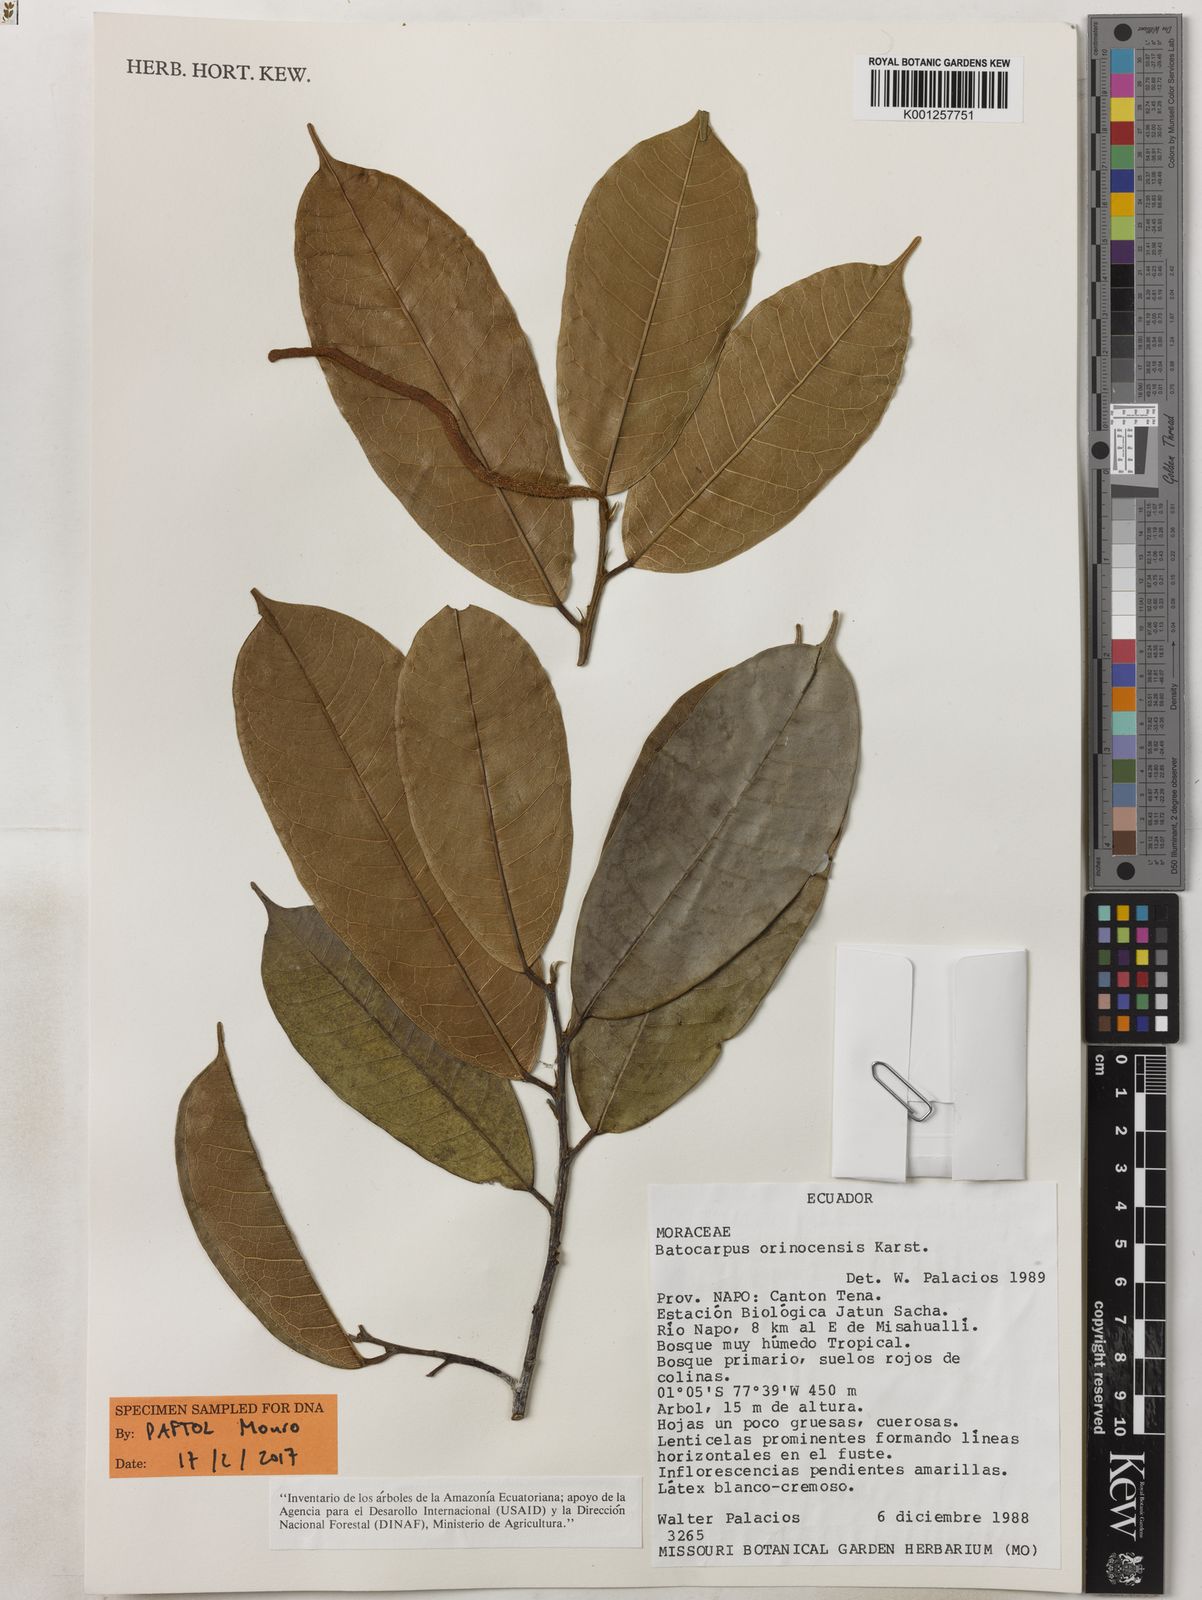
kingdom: Plantae
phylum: Tracheophyta
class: Magnoliopsida
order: Rosales
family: Moraceae
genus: Batocarpus
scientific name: Batocarpus orinocensis
